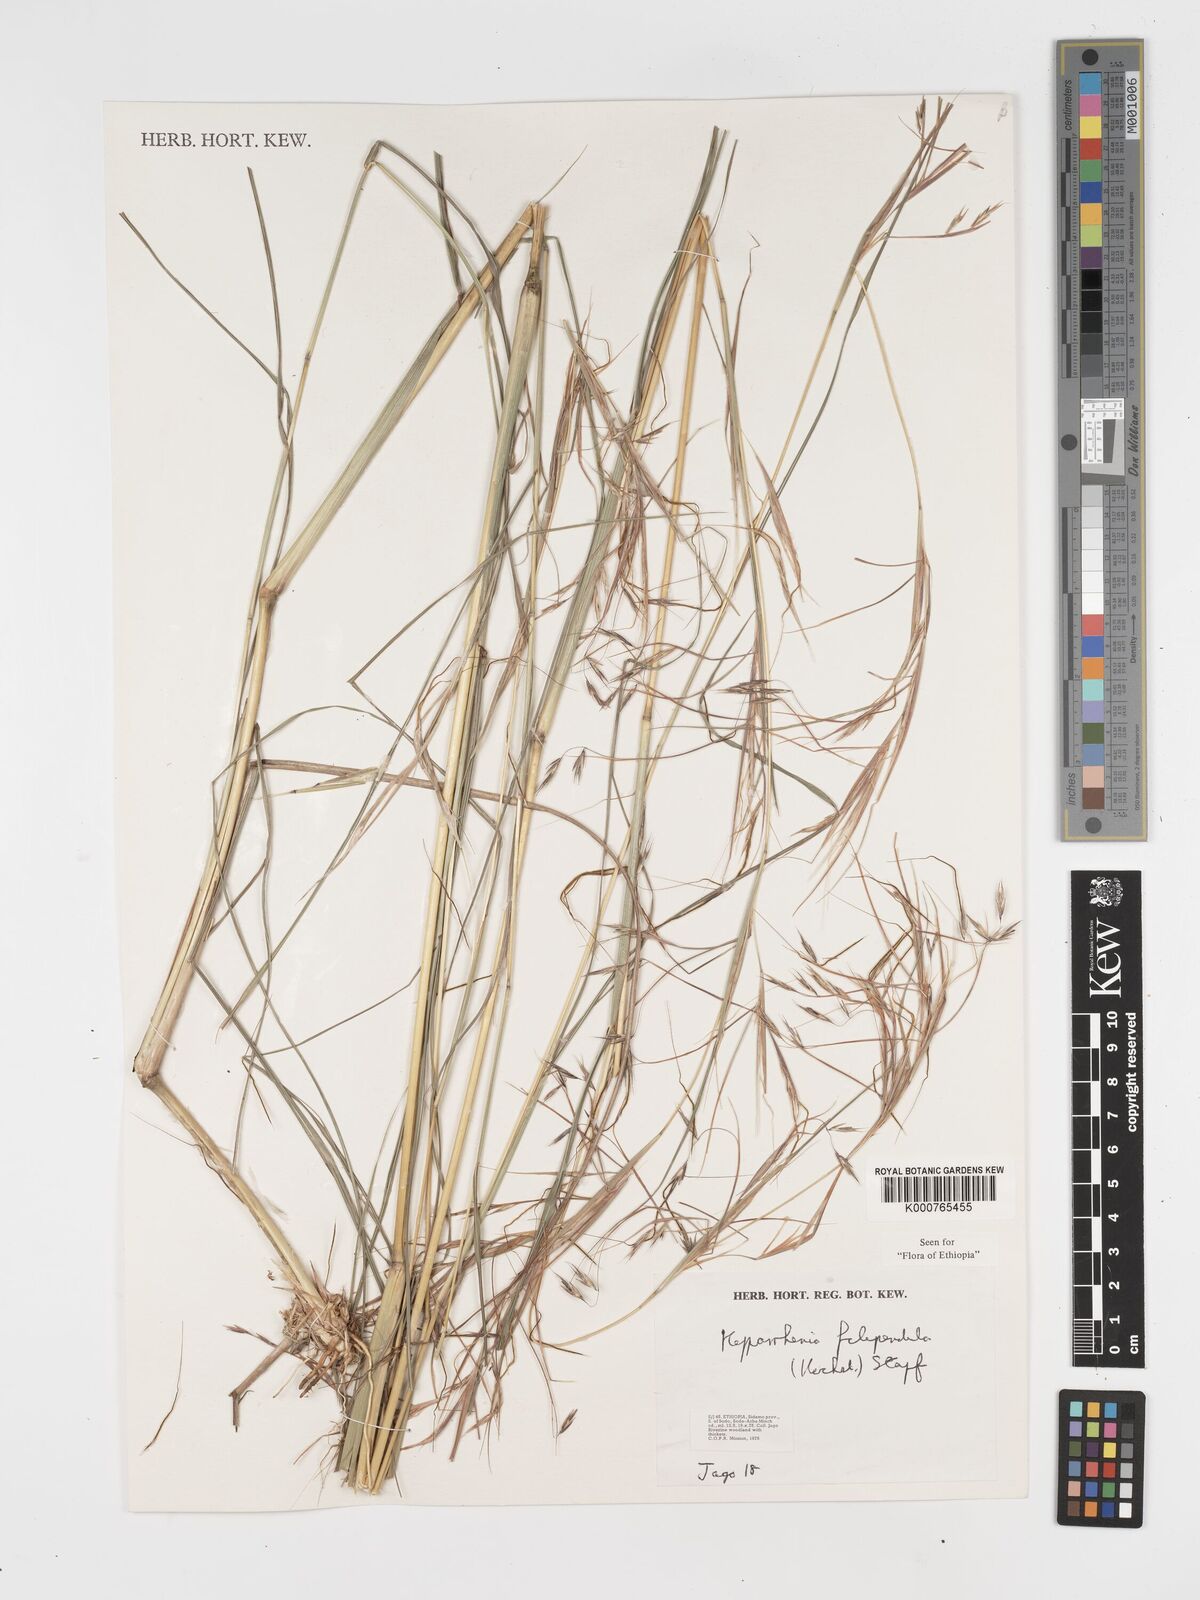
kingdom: Plantae
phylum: Tracheophyta
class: Liliopsida
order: Poales
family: Poaceae
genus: Hyparrhenia
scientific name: Hyparrhenia filipendula
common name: Tambookie grass
